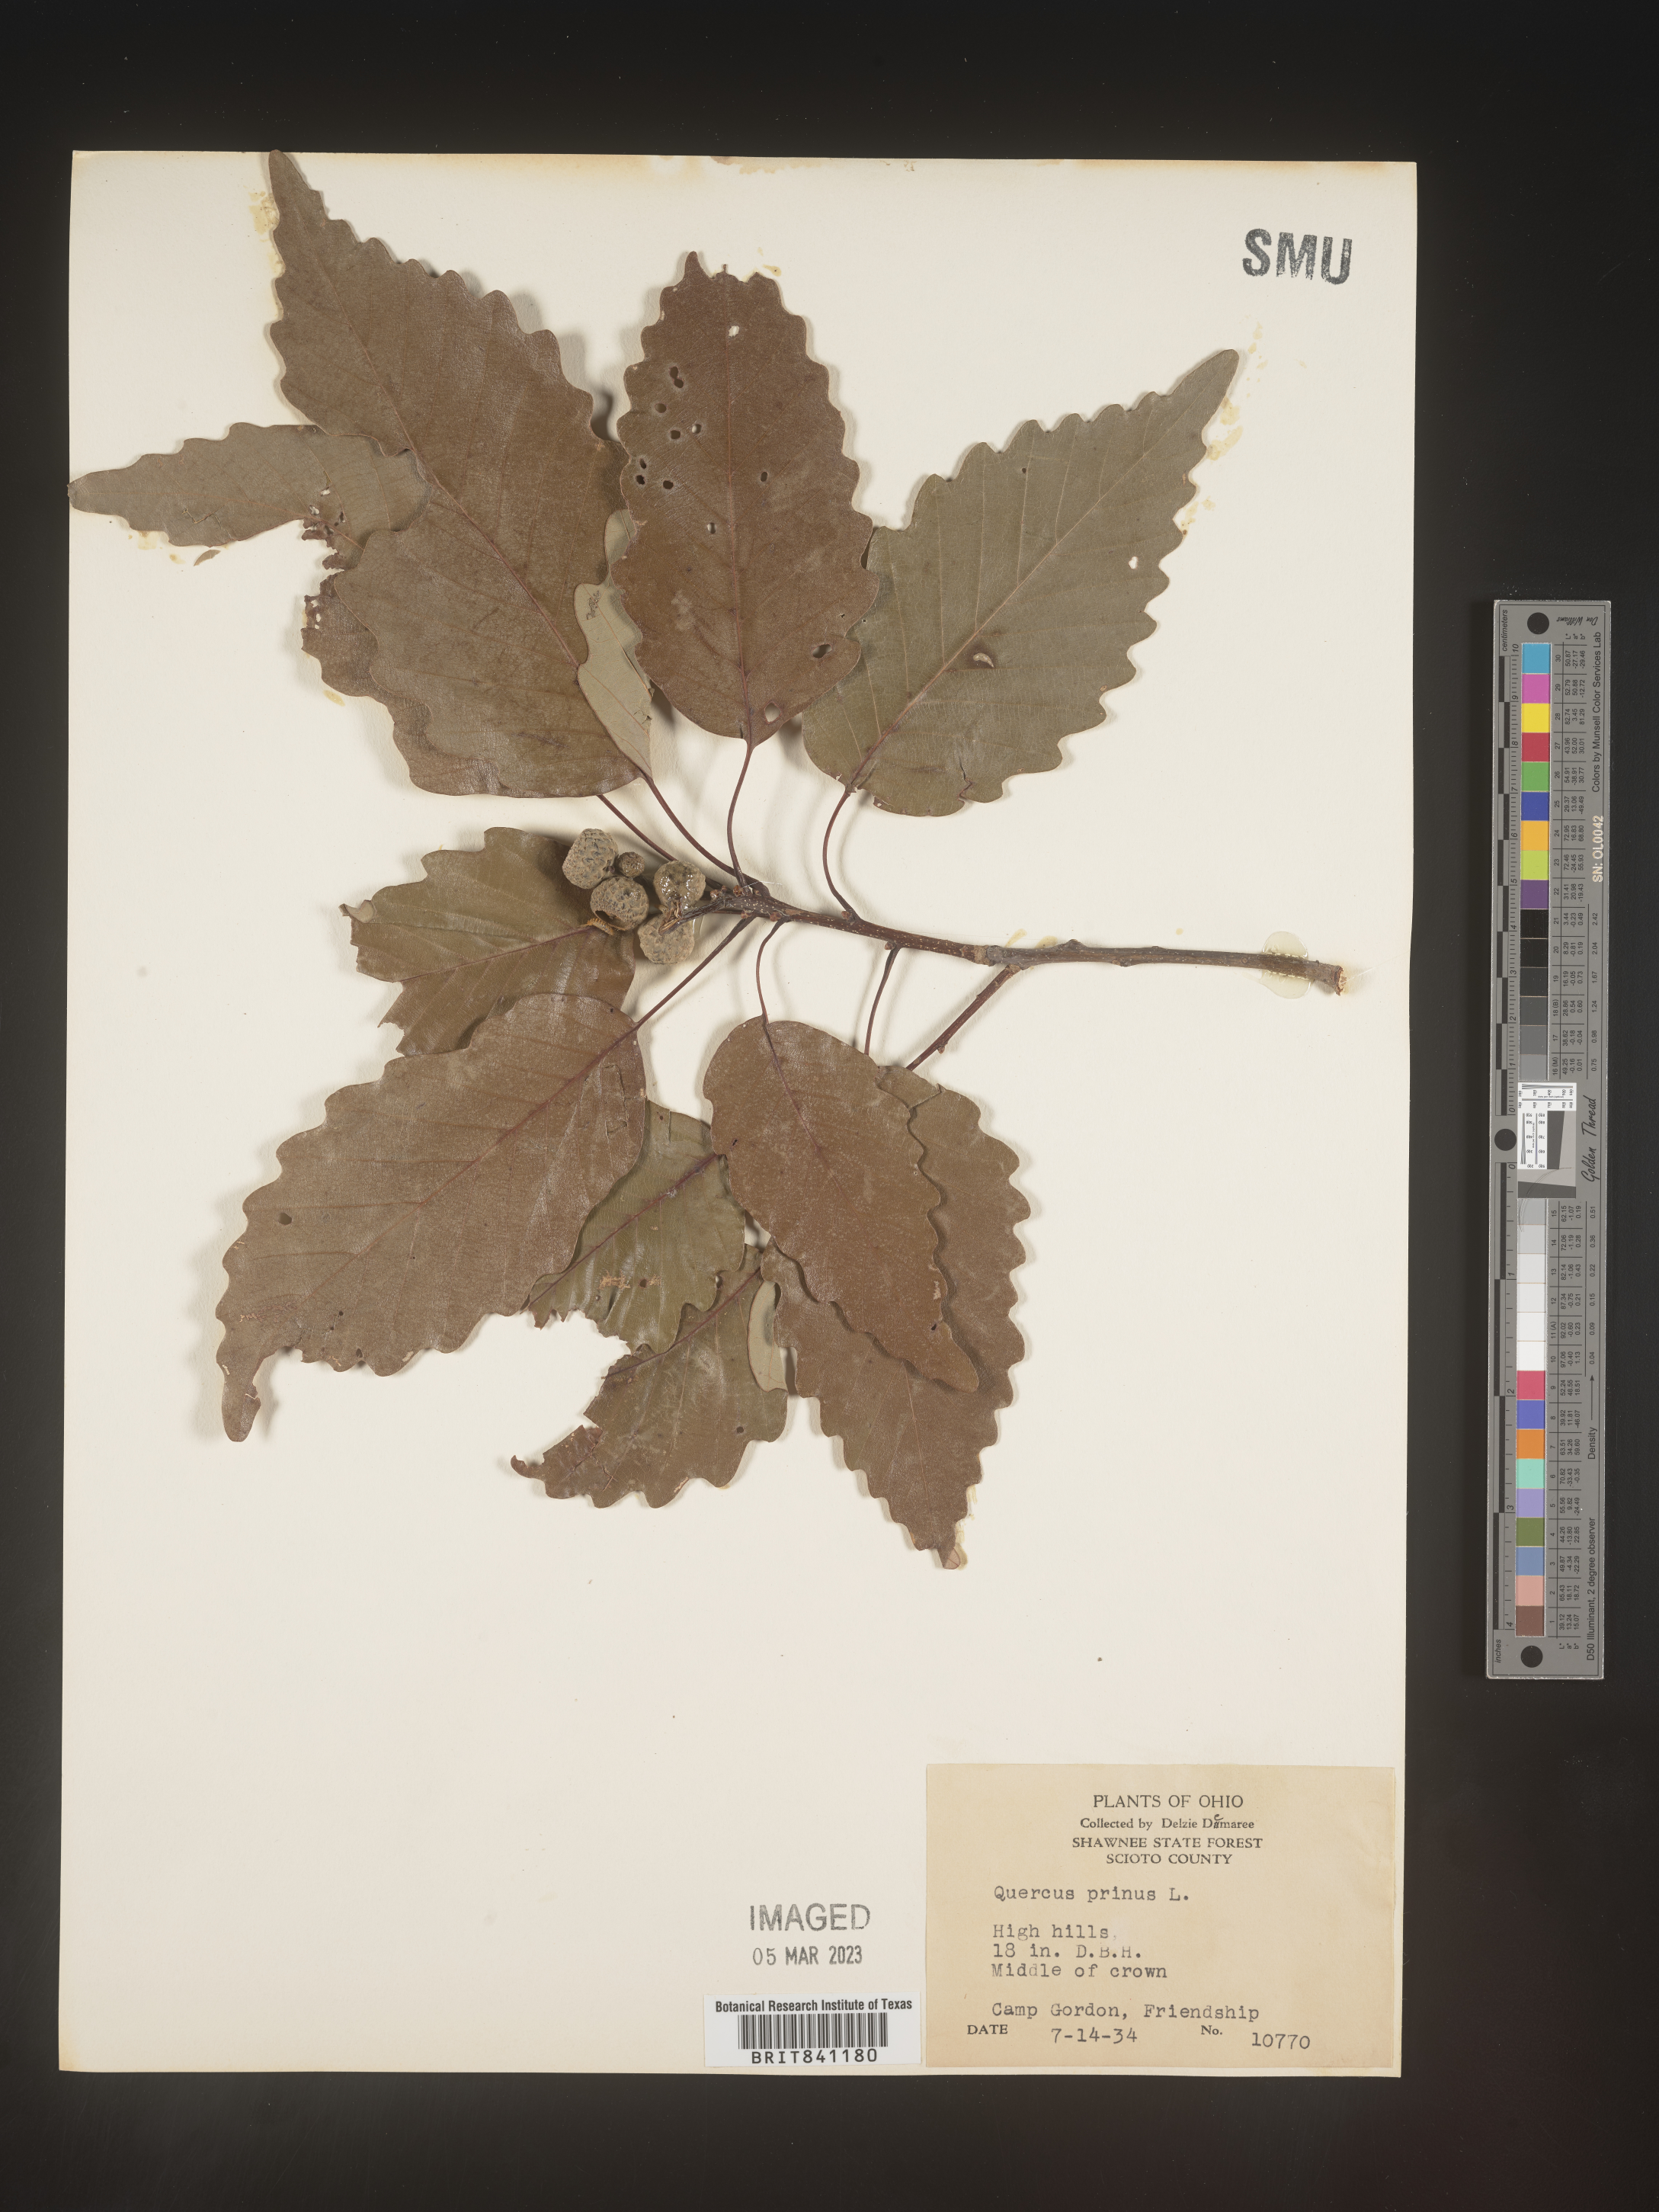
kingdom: Plantae
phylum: Tracheophyta
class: Magnoliopsida
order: Fagales
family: Fagaceae
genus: Quercus
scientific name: Quercus michauxii
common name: Swamp chestnut oak
